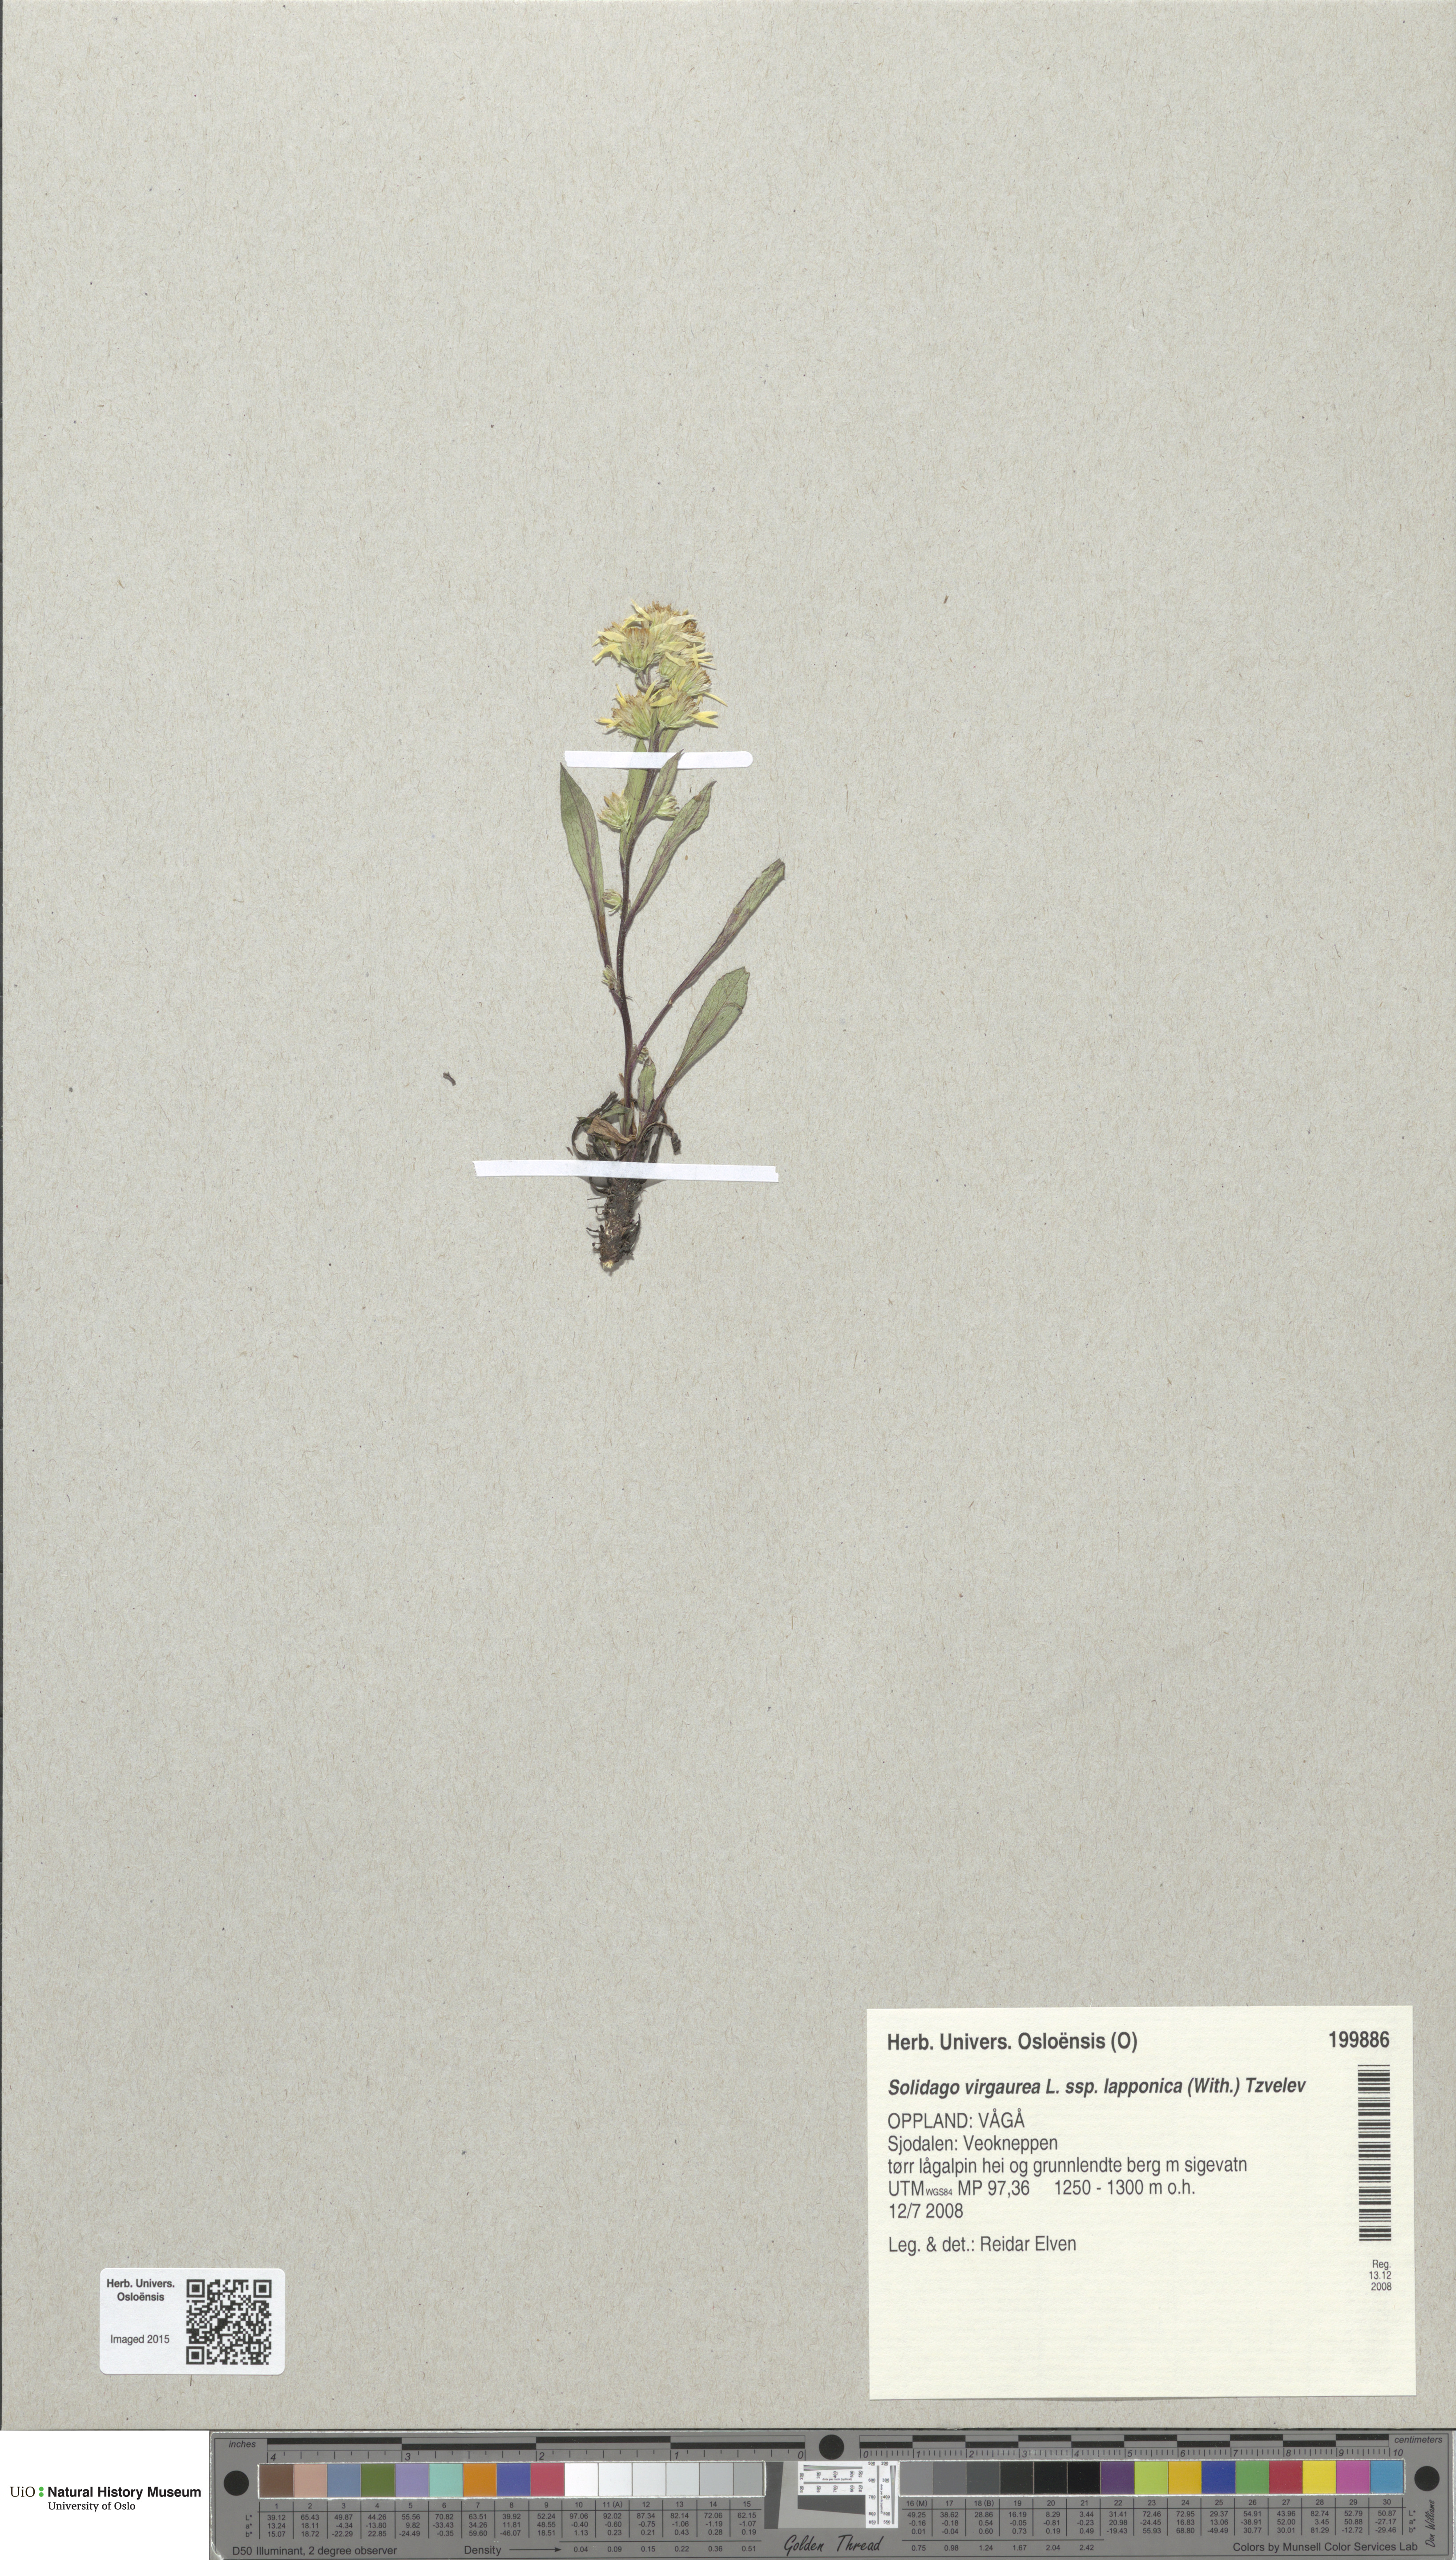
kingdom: Plantae
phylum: Tracheophyta
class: Magnoliopsida
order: Asterales
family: Asteraceae
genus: Solidago
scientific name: Solidago virgaurea
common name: Goldenrod
